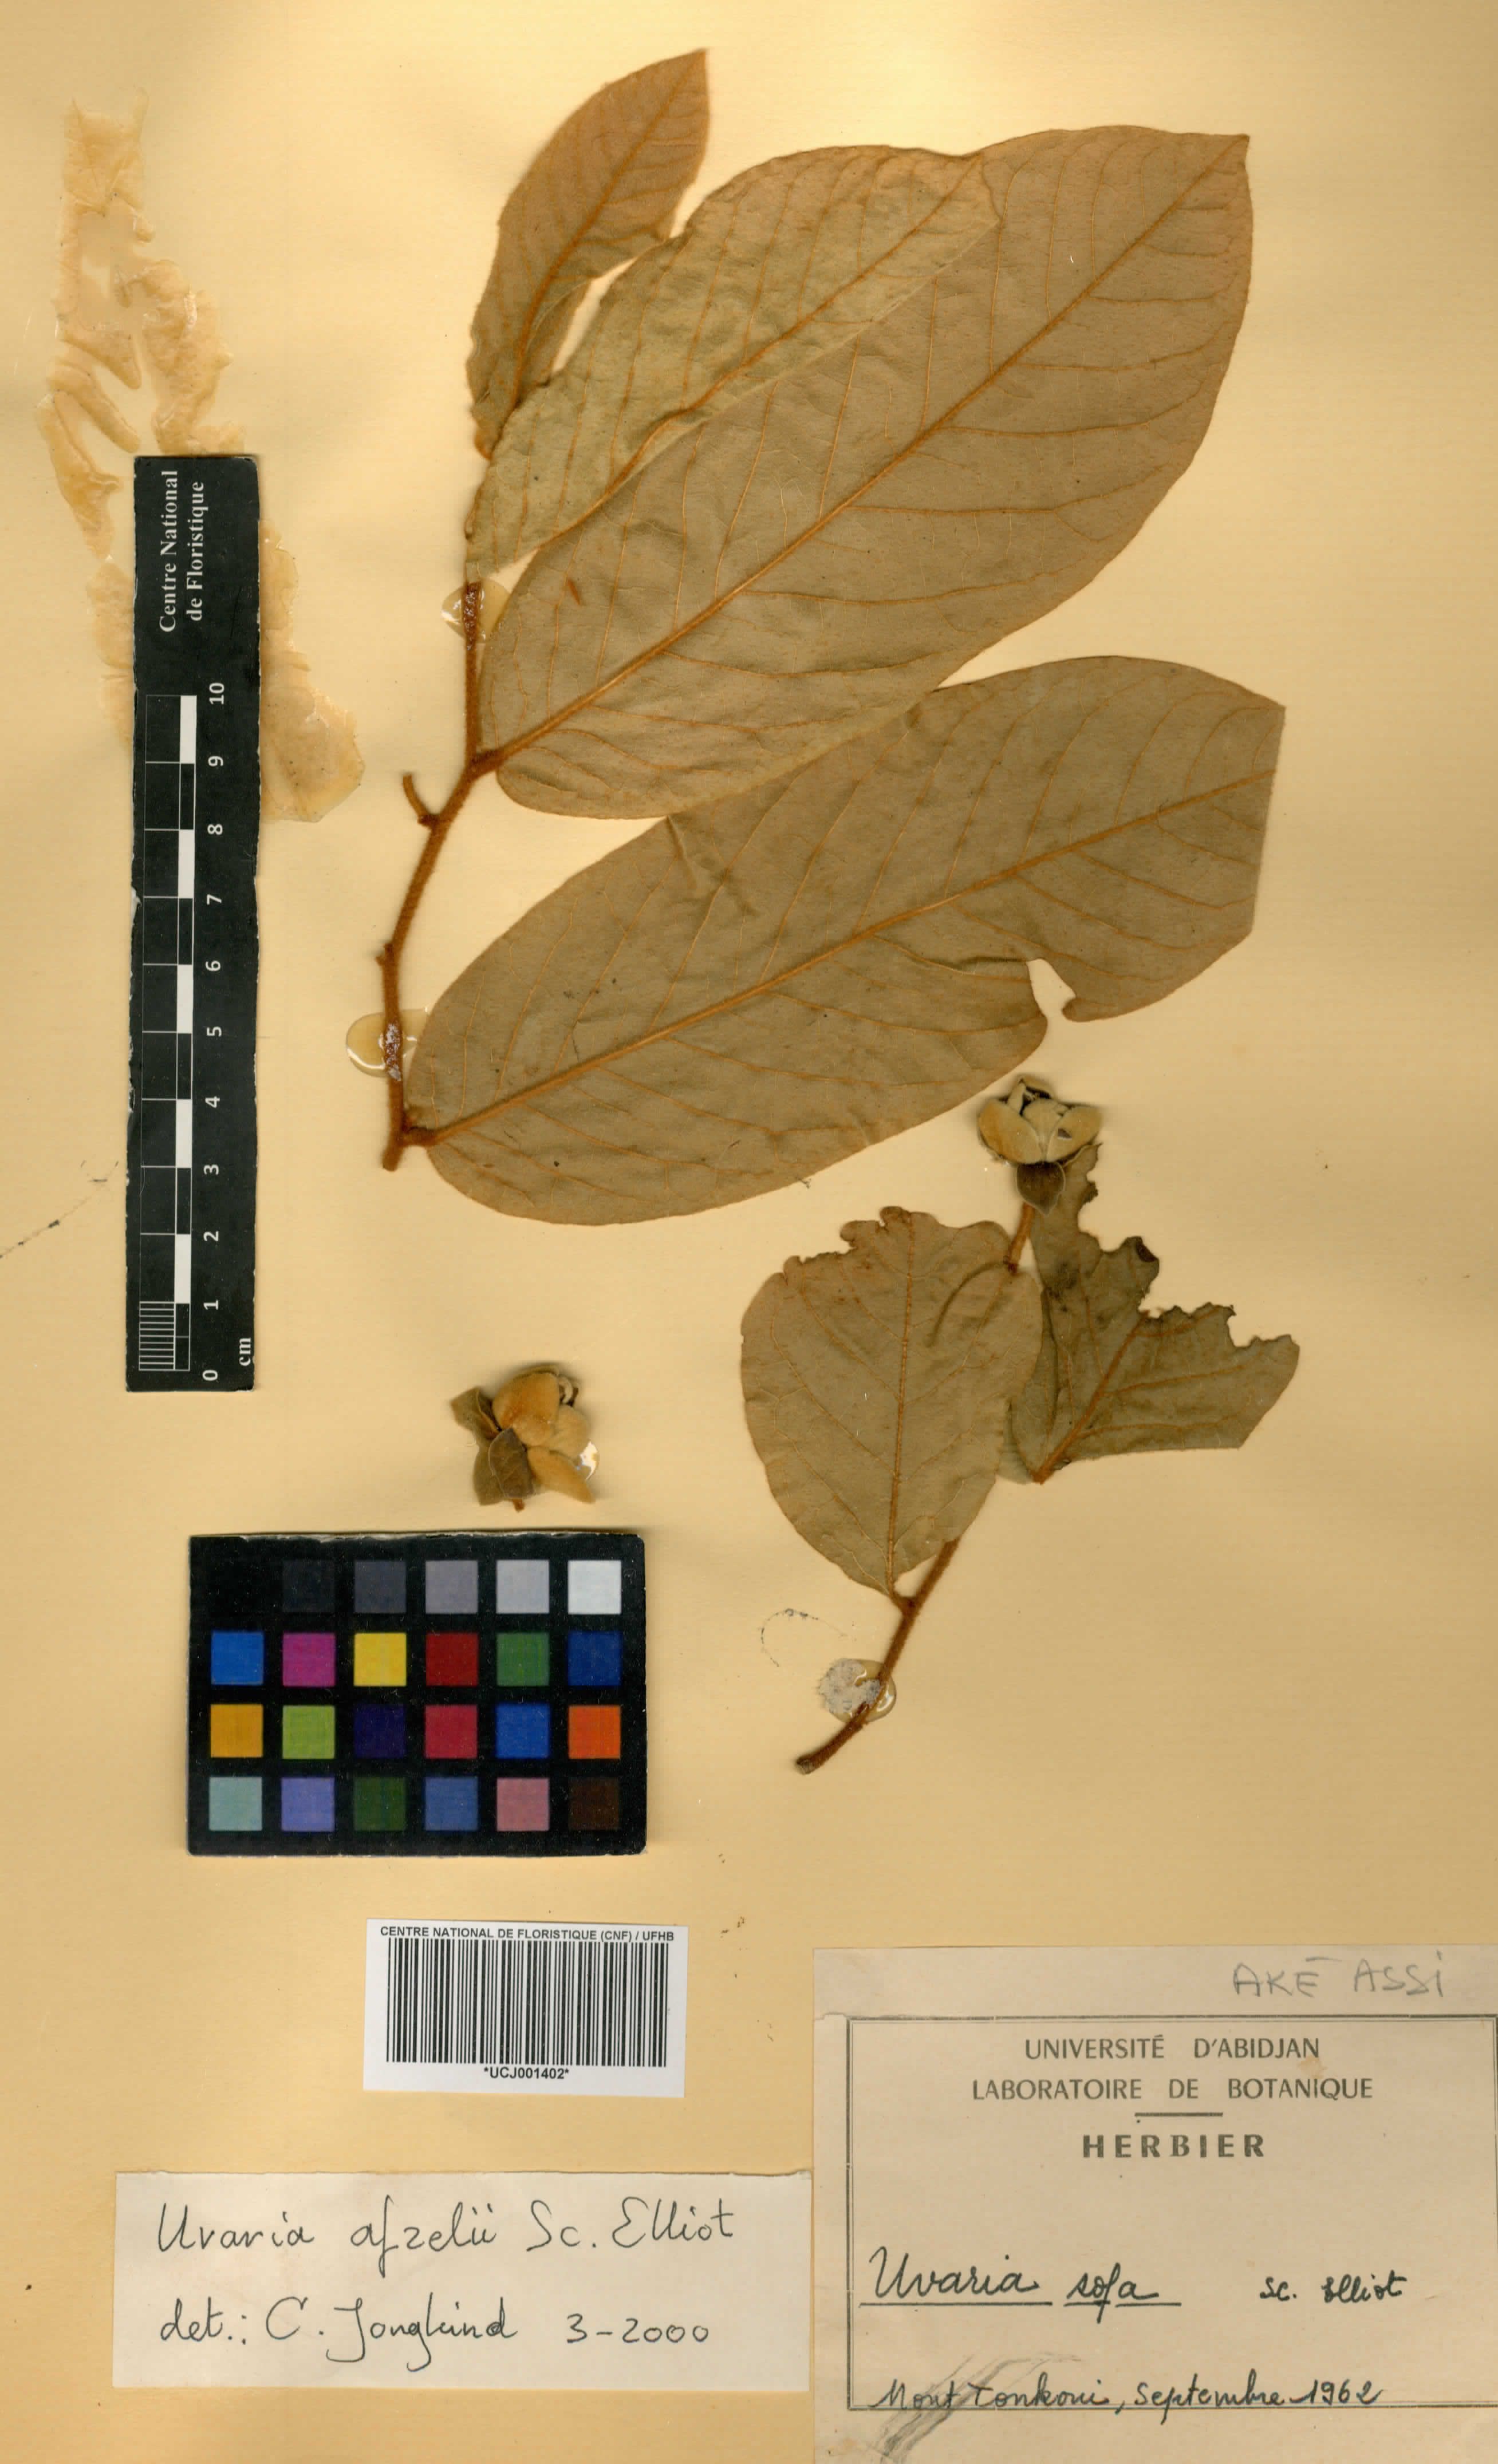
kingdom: Plantae
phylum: Tracheophyta
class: Magnoliopsida
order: Magnoliales
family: Annonaceae
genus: Uvaria
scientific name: Uvaria sofa
